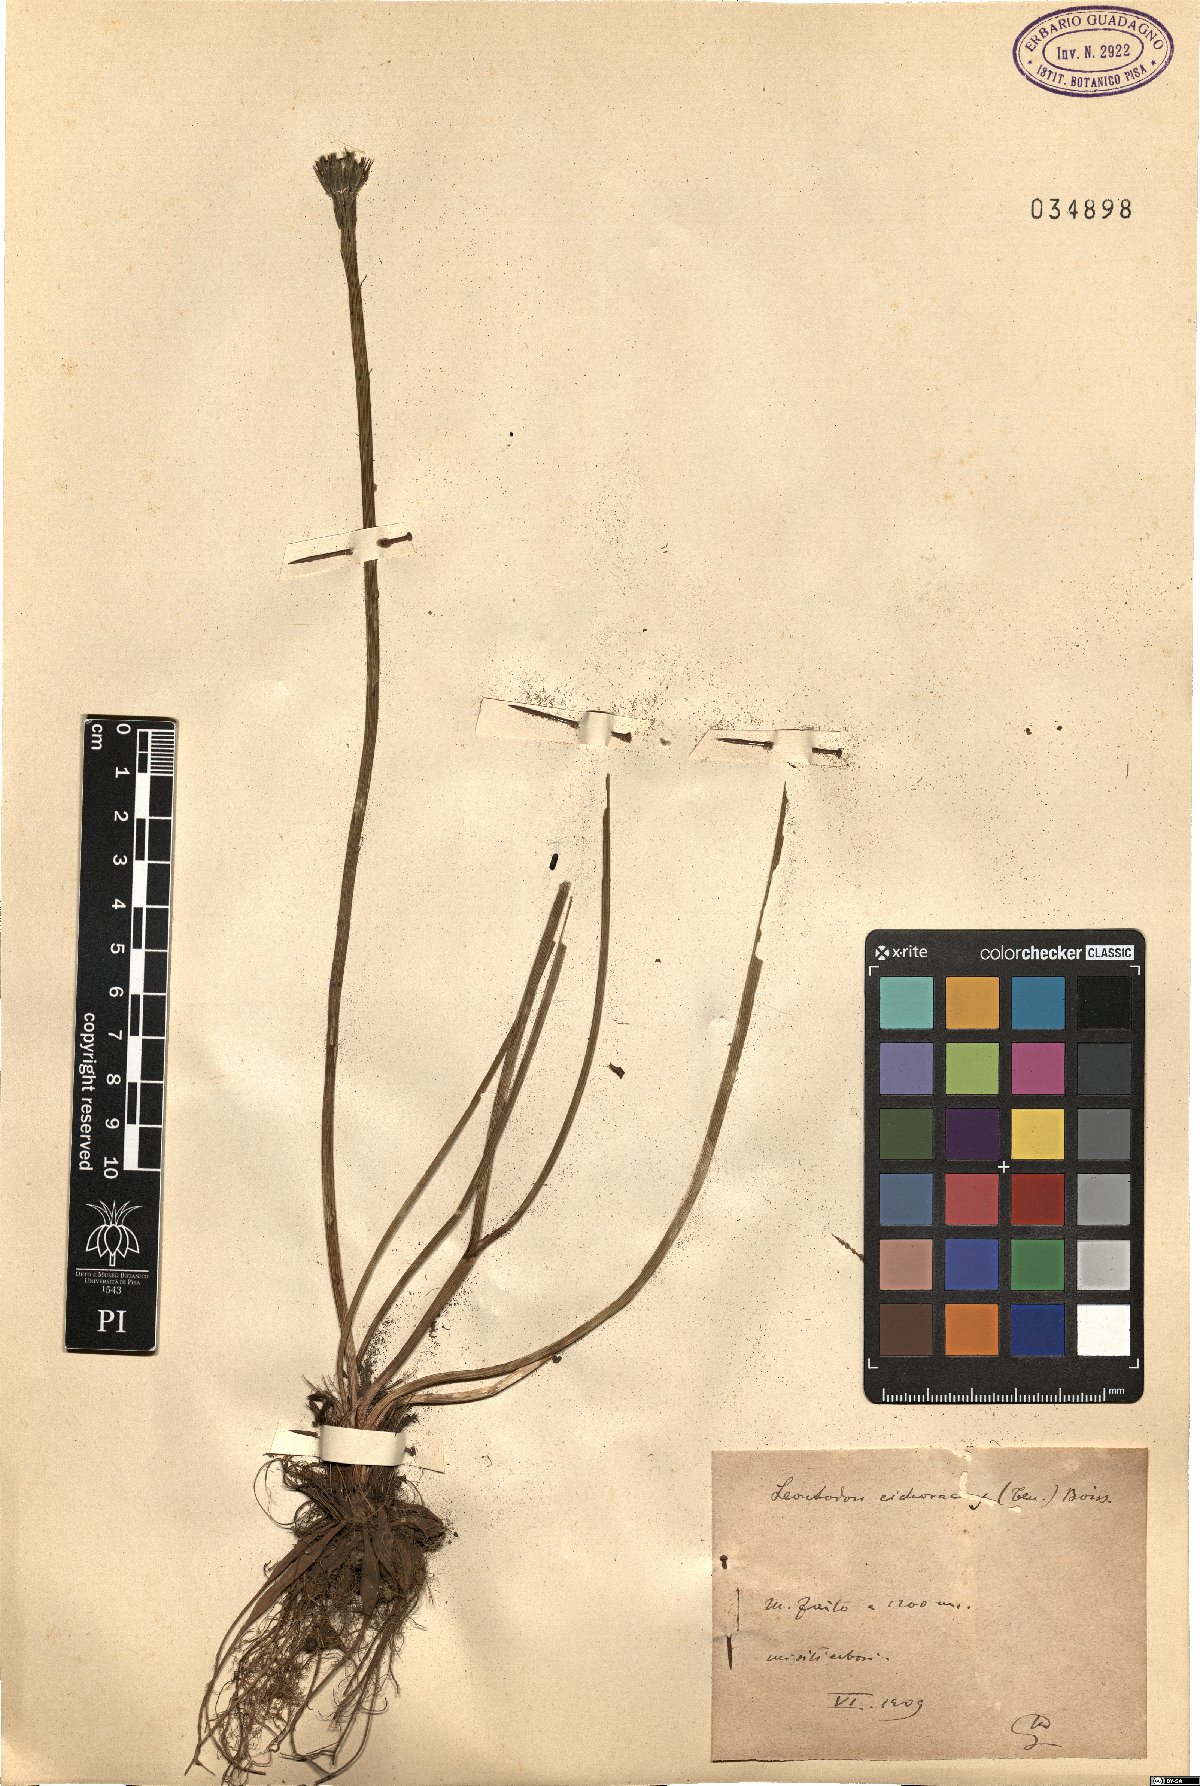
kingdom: Plantae
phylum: Tracheophyta
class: Magnoliopsida
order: Asterales
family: Asteraceae
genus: Scorzoneroides
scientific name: Scorzoneroides cichoriacea
